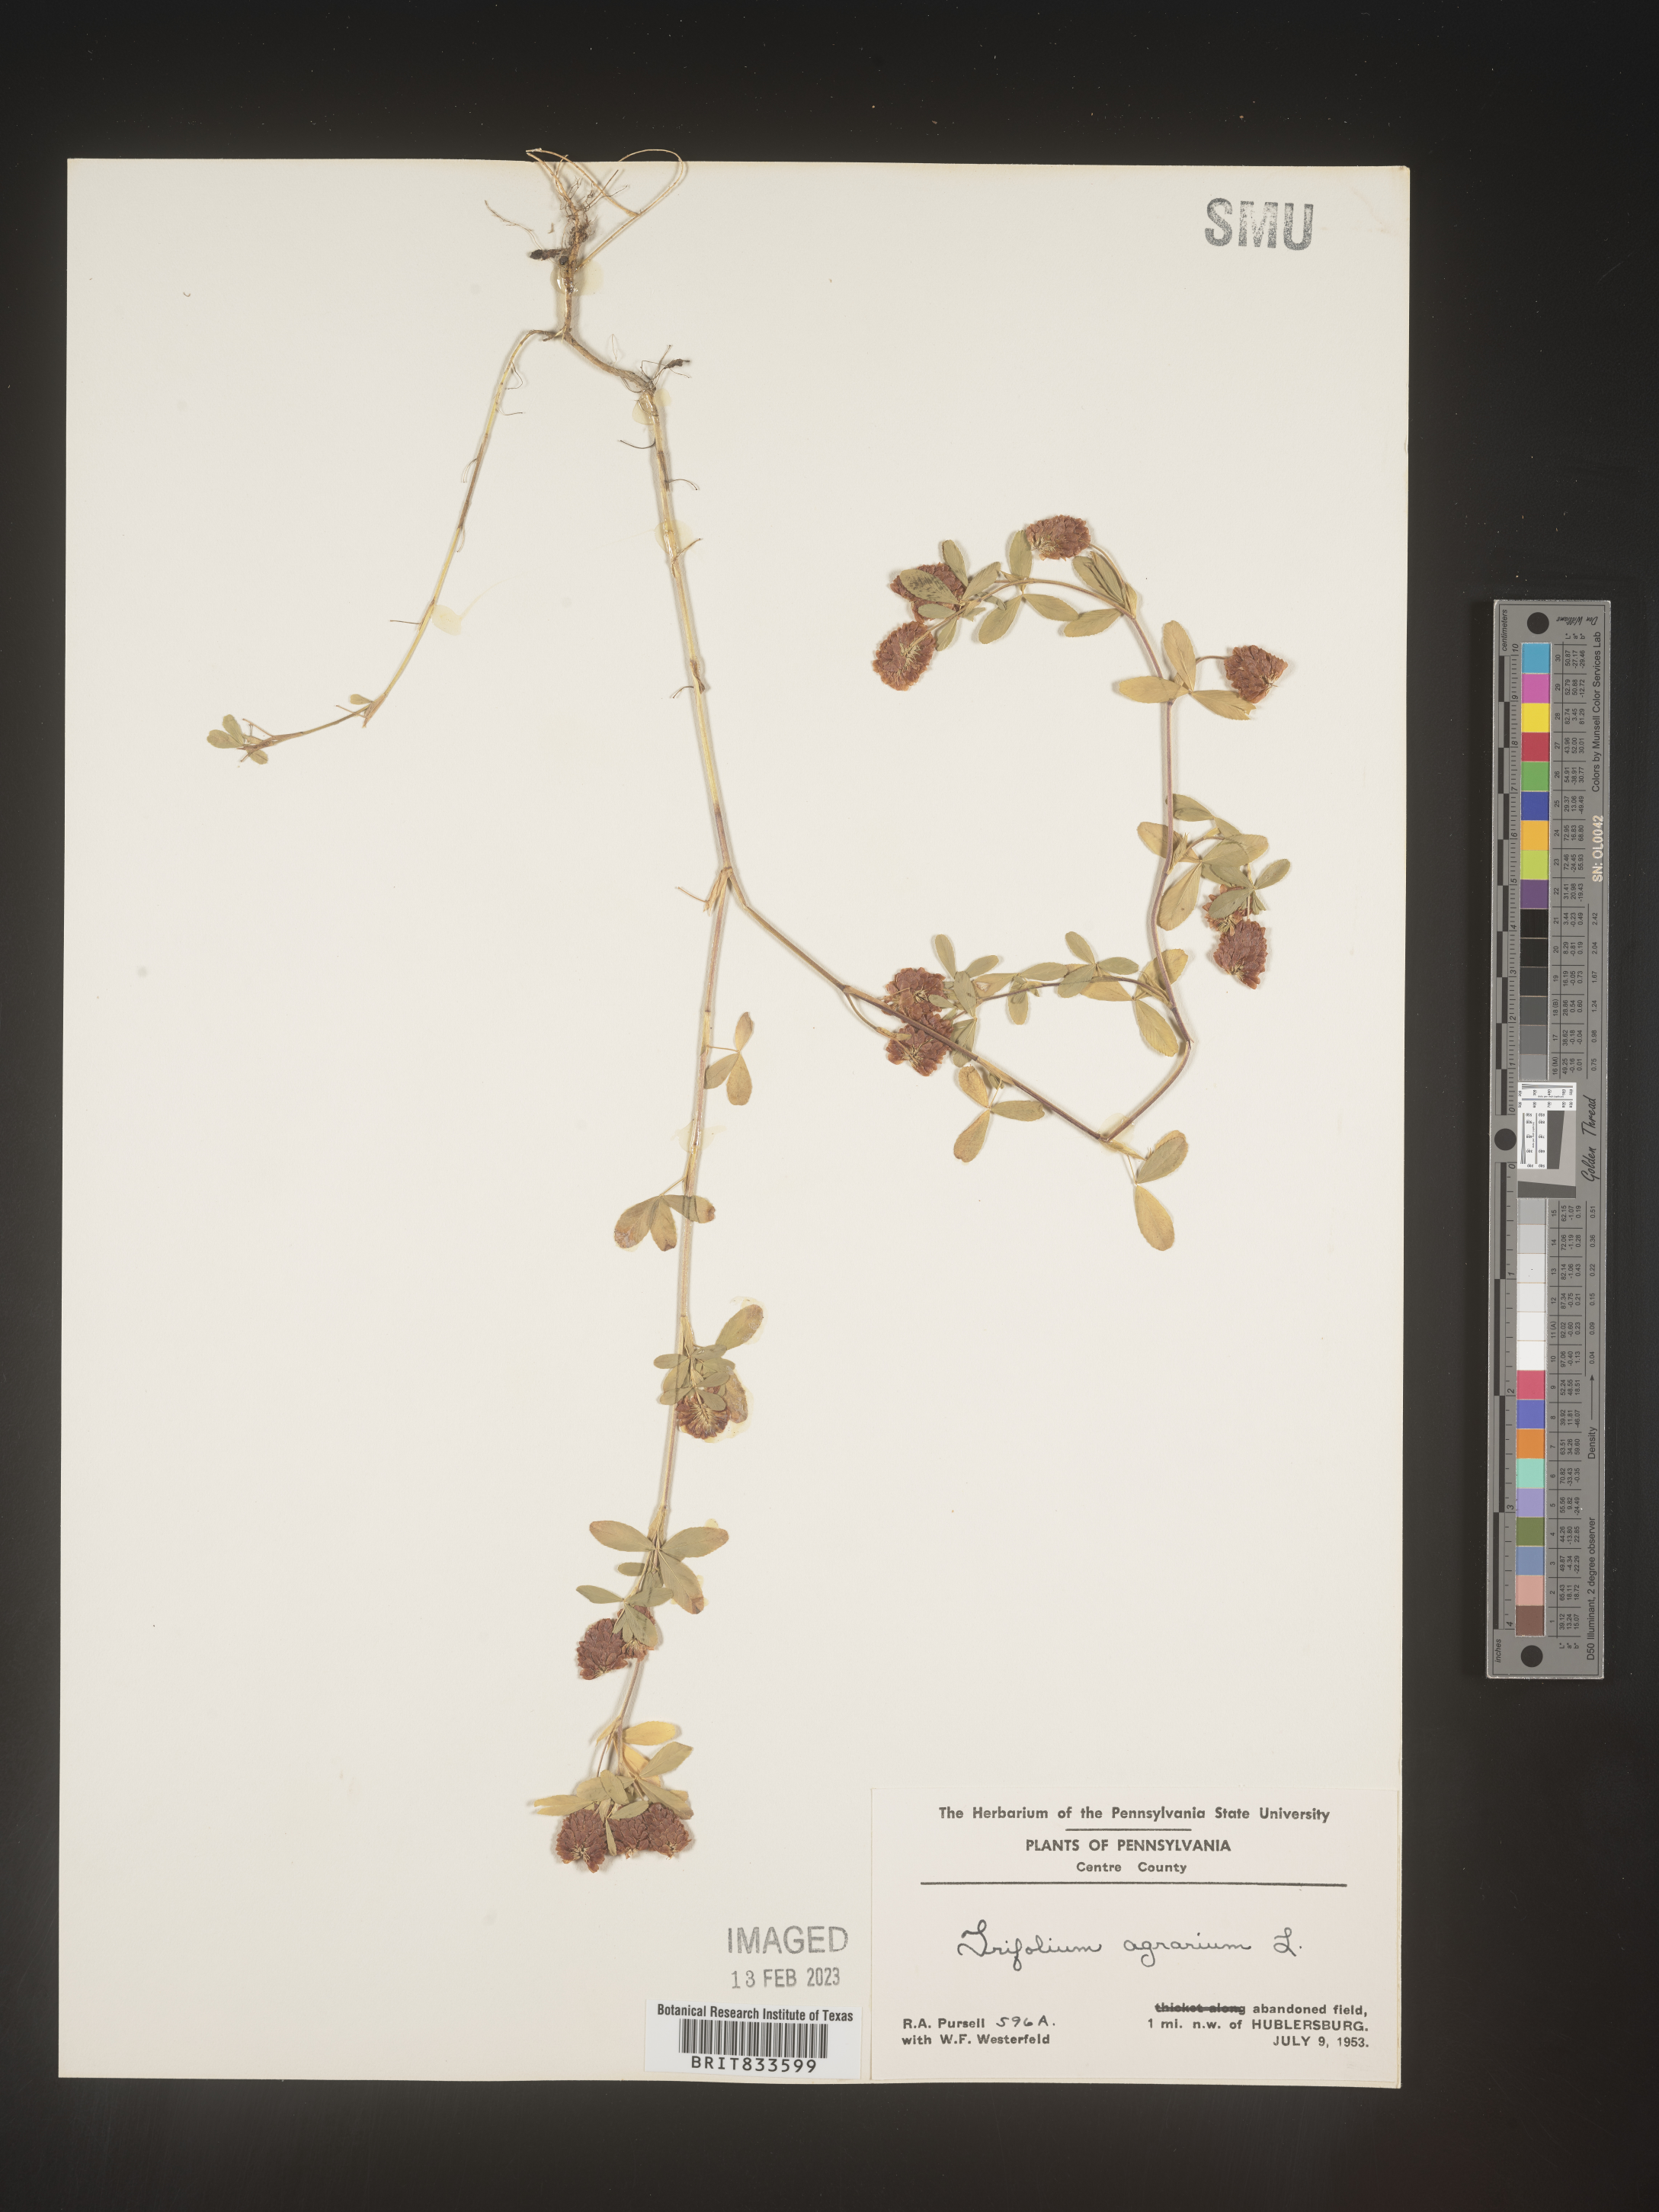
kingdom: Plantae
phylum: Tracheophyta
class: Magnoliopsida
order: Fabales
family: Fabaceae
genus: Trifolium
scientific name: Trifolium agrarium
